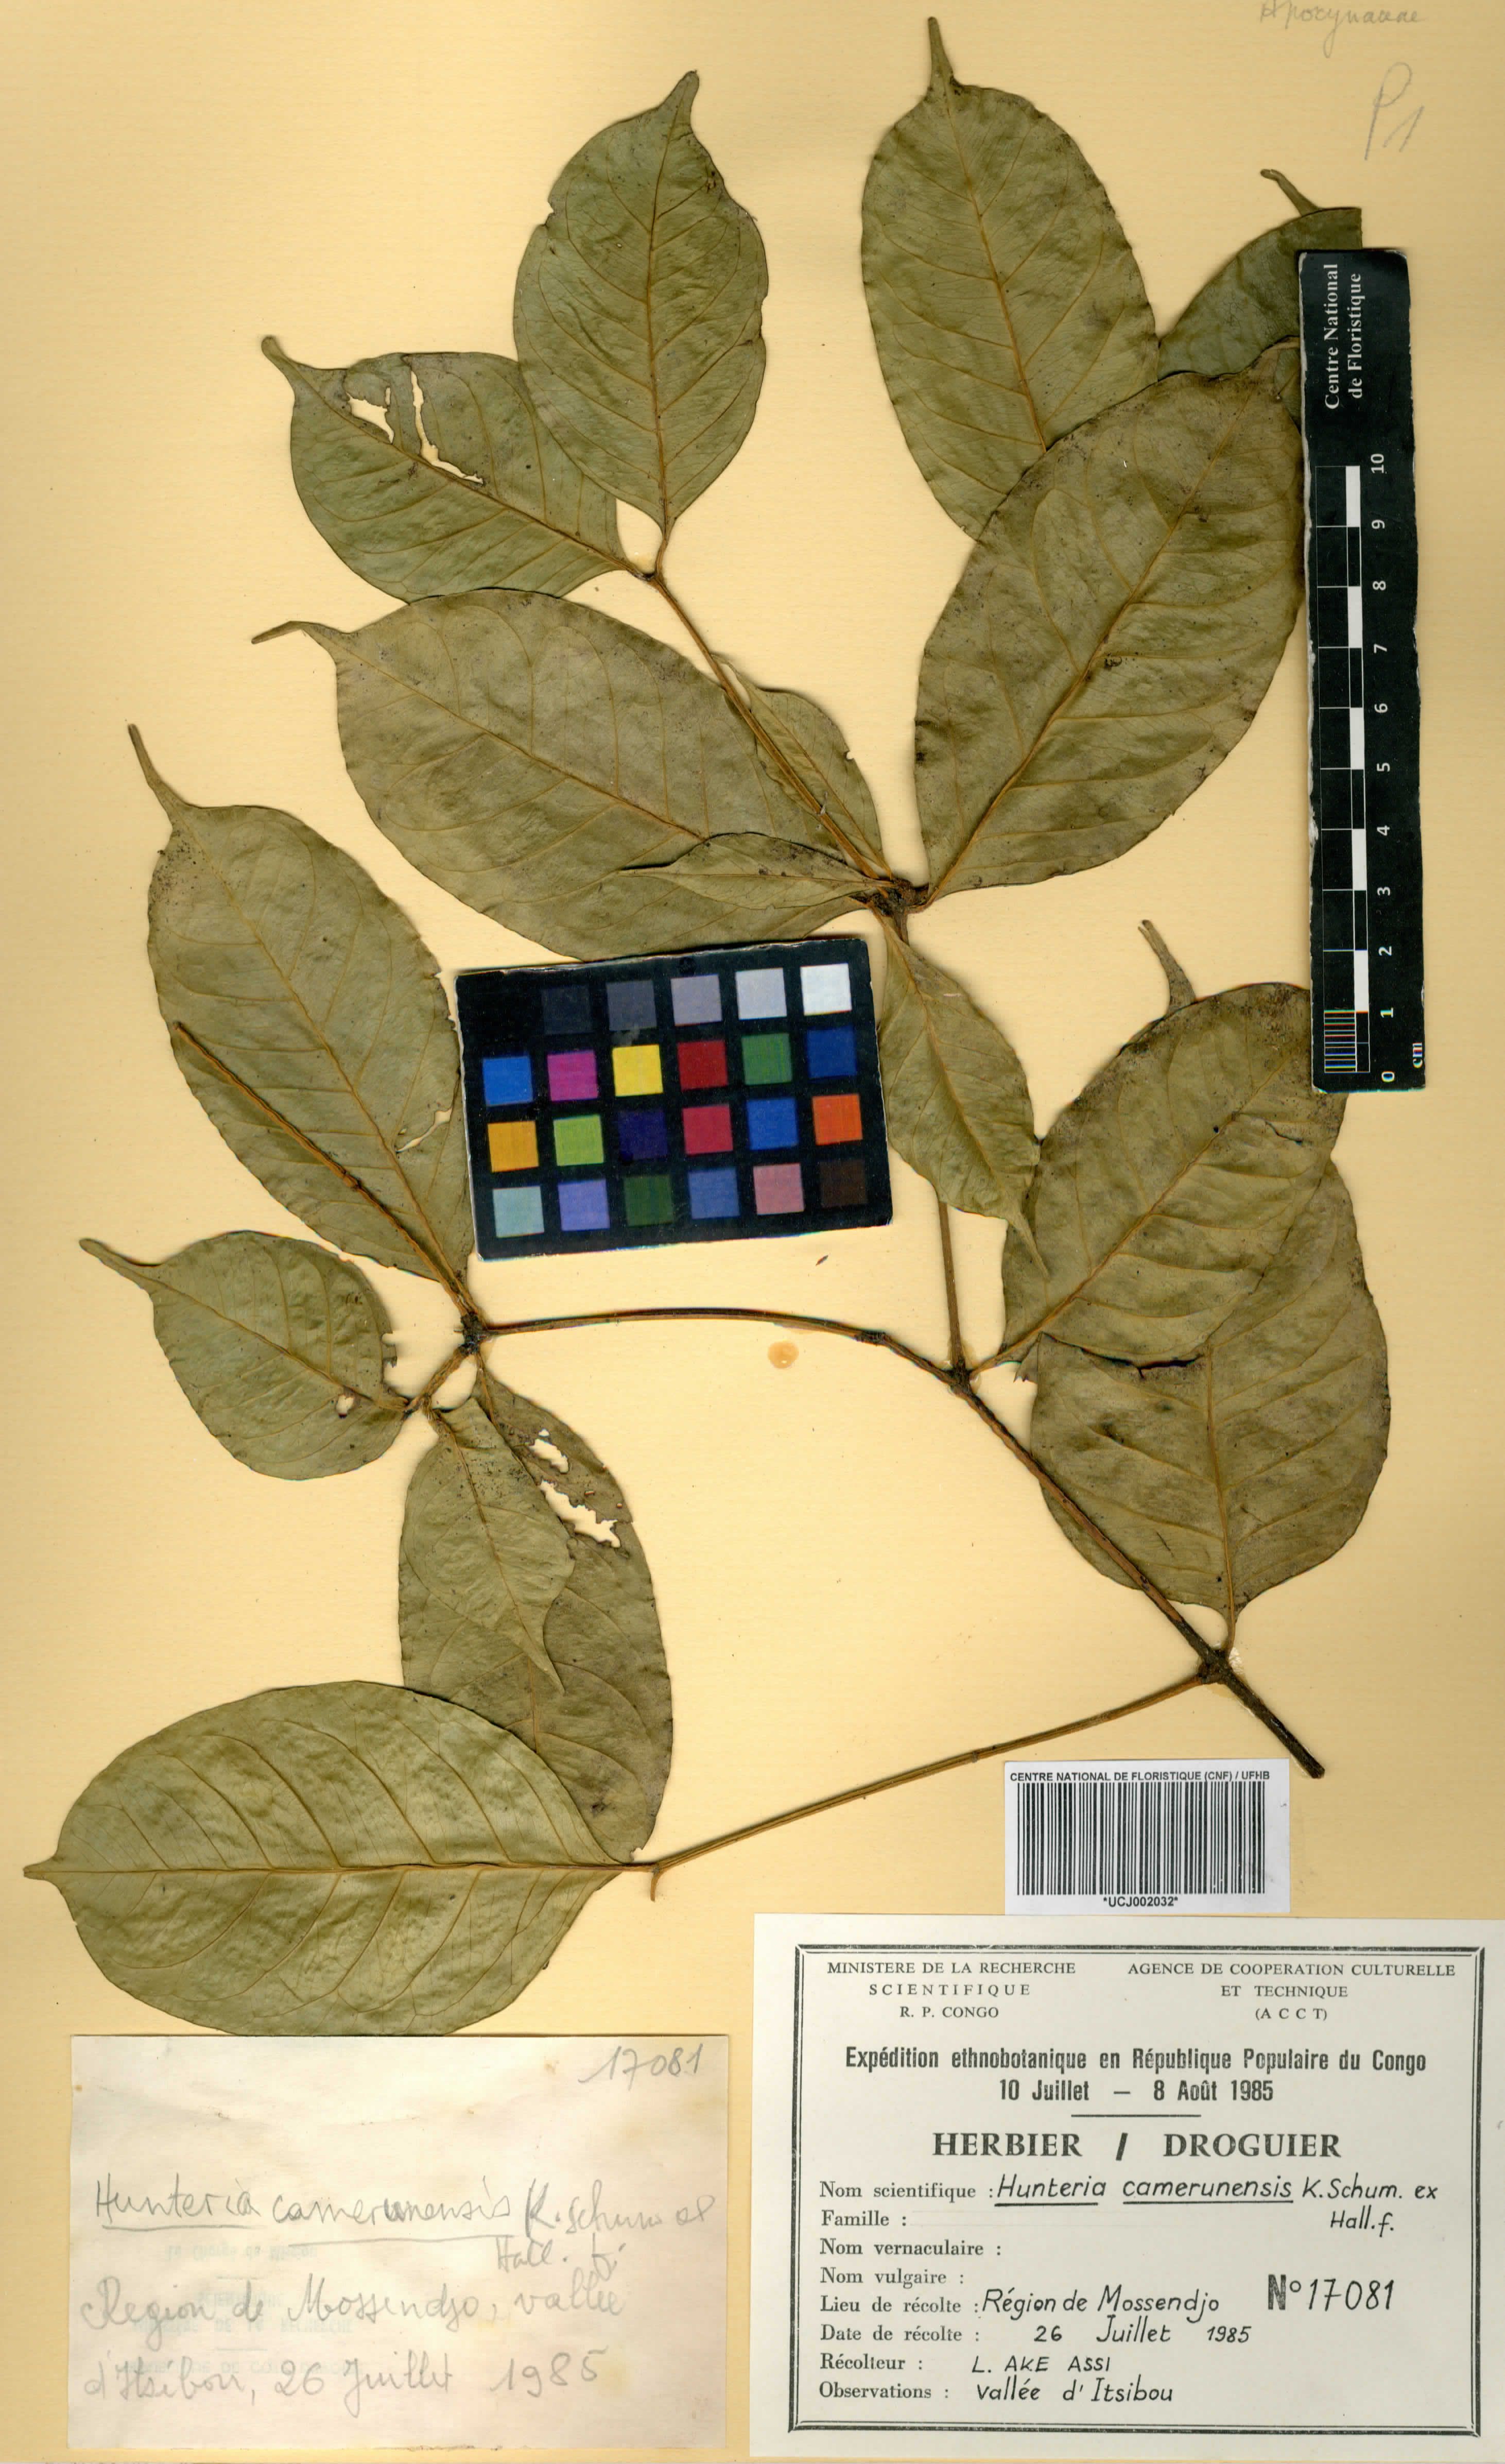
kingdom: Plantae
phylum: Tracheophyta
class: Magnoliopsida
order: Gentianales
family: Apocynaceae
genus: Hunteria
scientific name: Hunteria camerunensis
